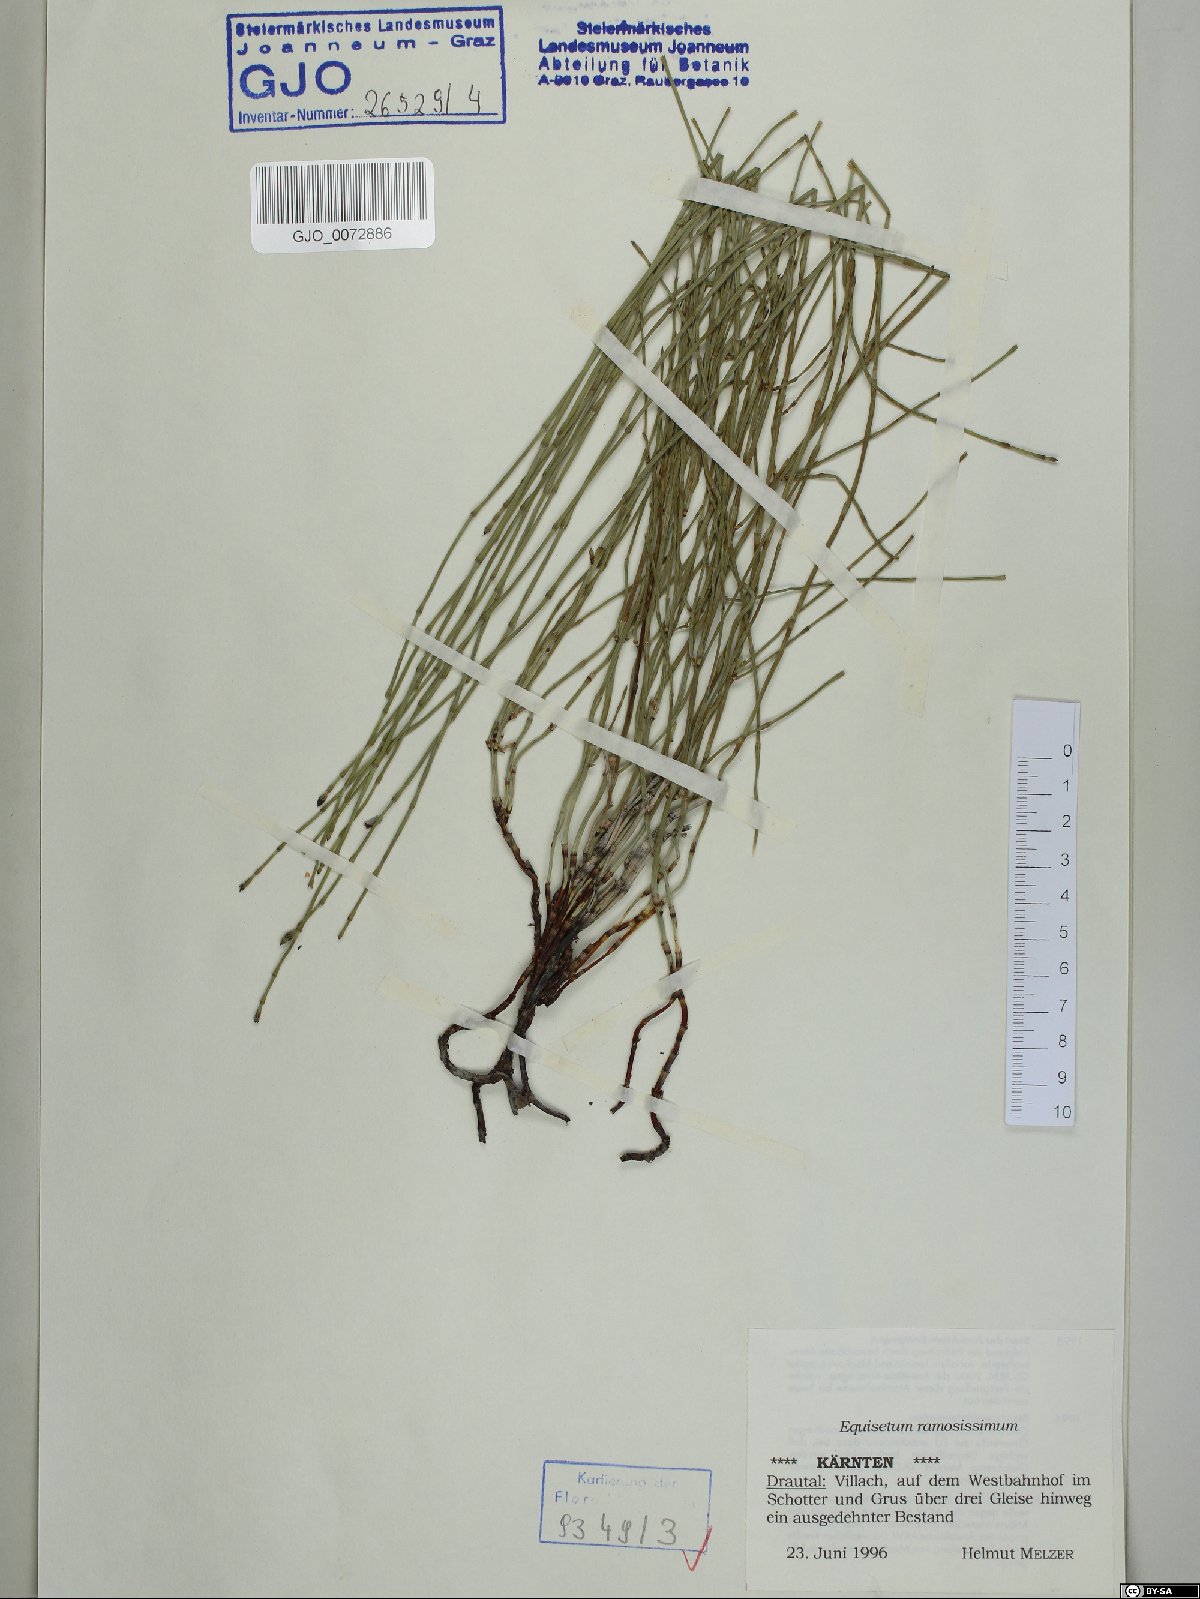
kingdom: Plantae
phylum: Tracheophyta
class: Polypodiopsida
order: Equisetales
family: Equisetaceae
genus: Equisetum
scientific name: Equisetum ramosissimum
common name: Branched horsetail
